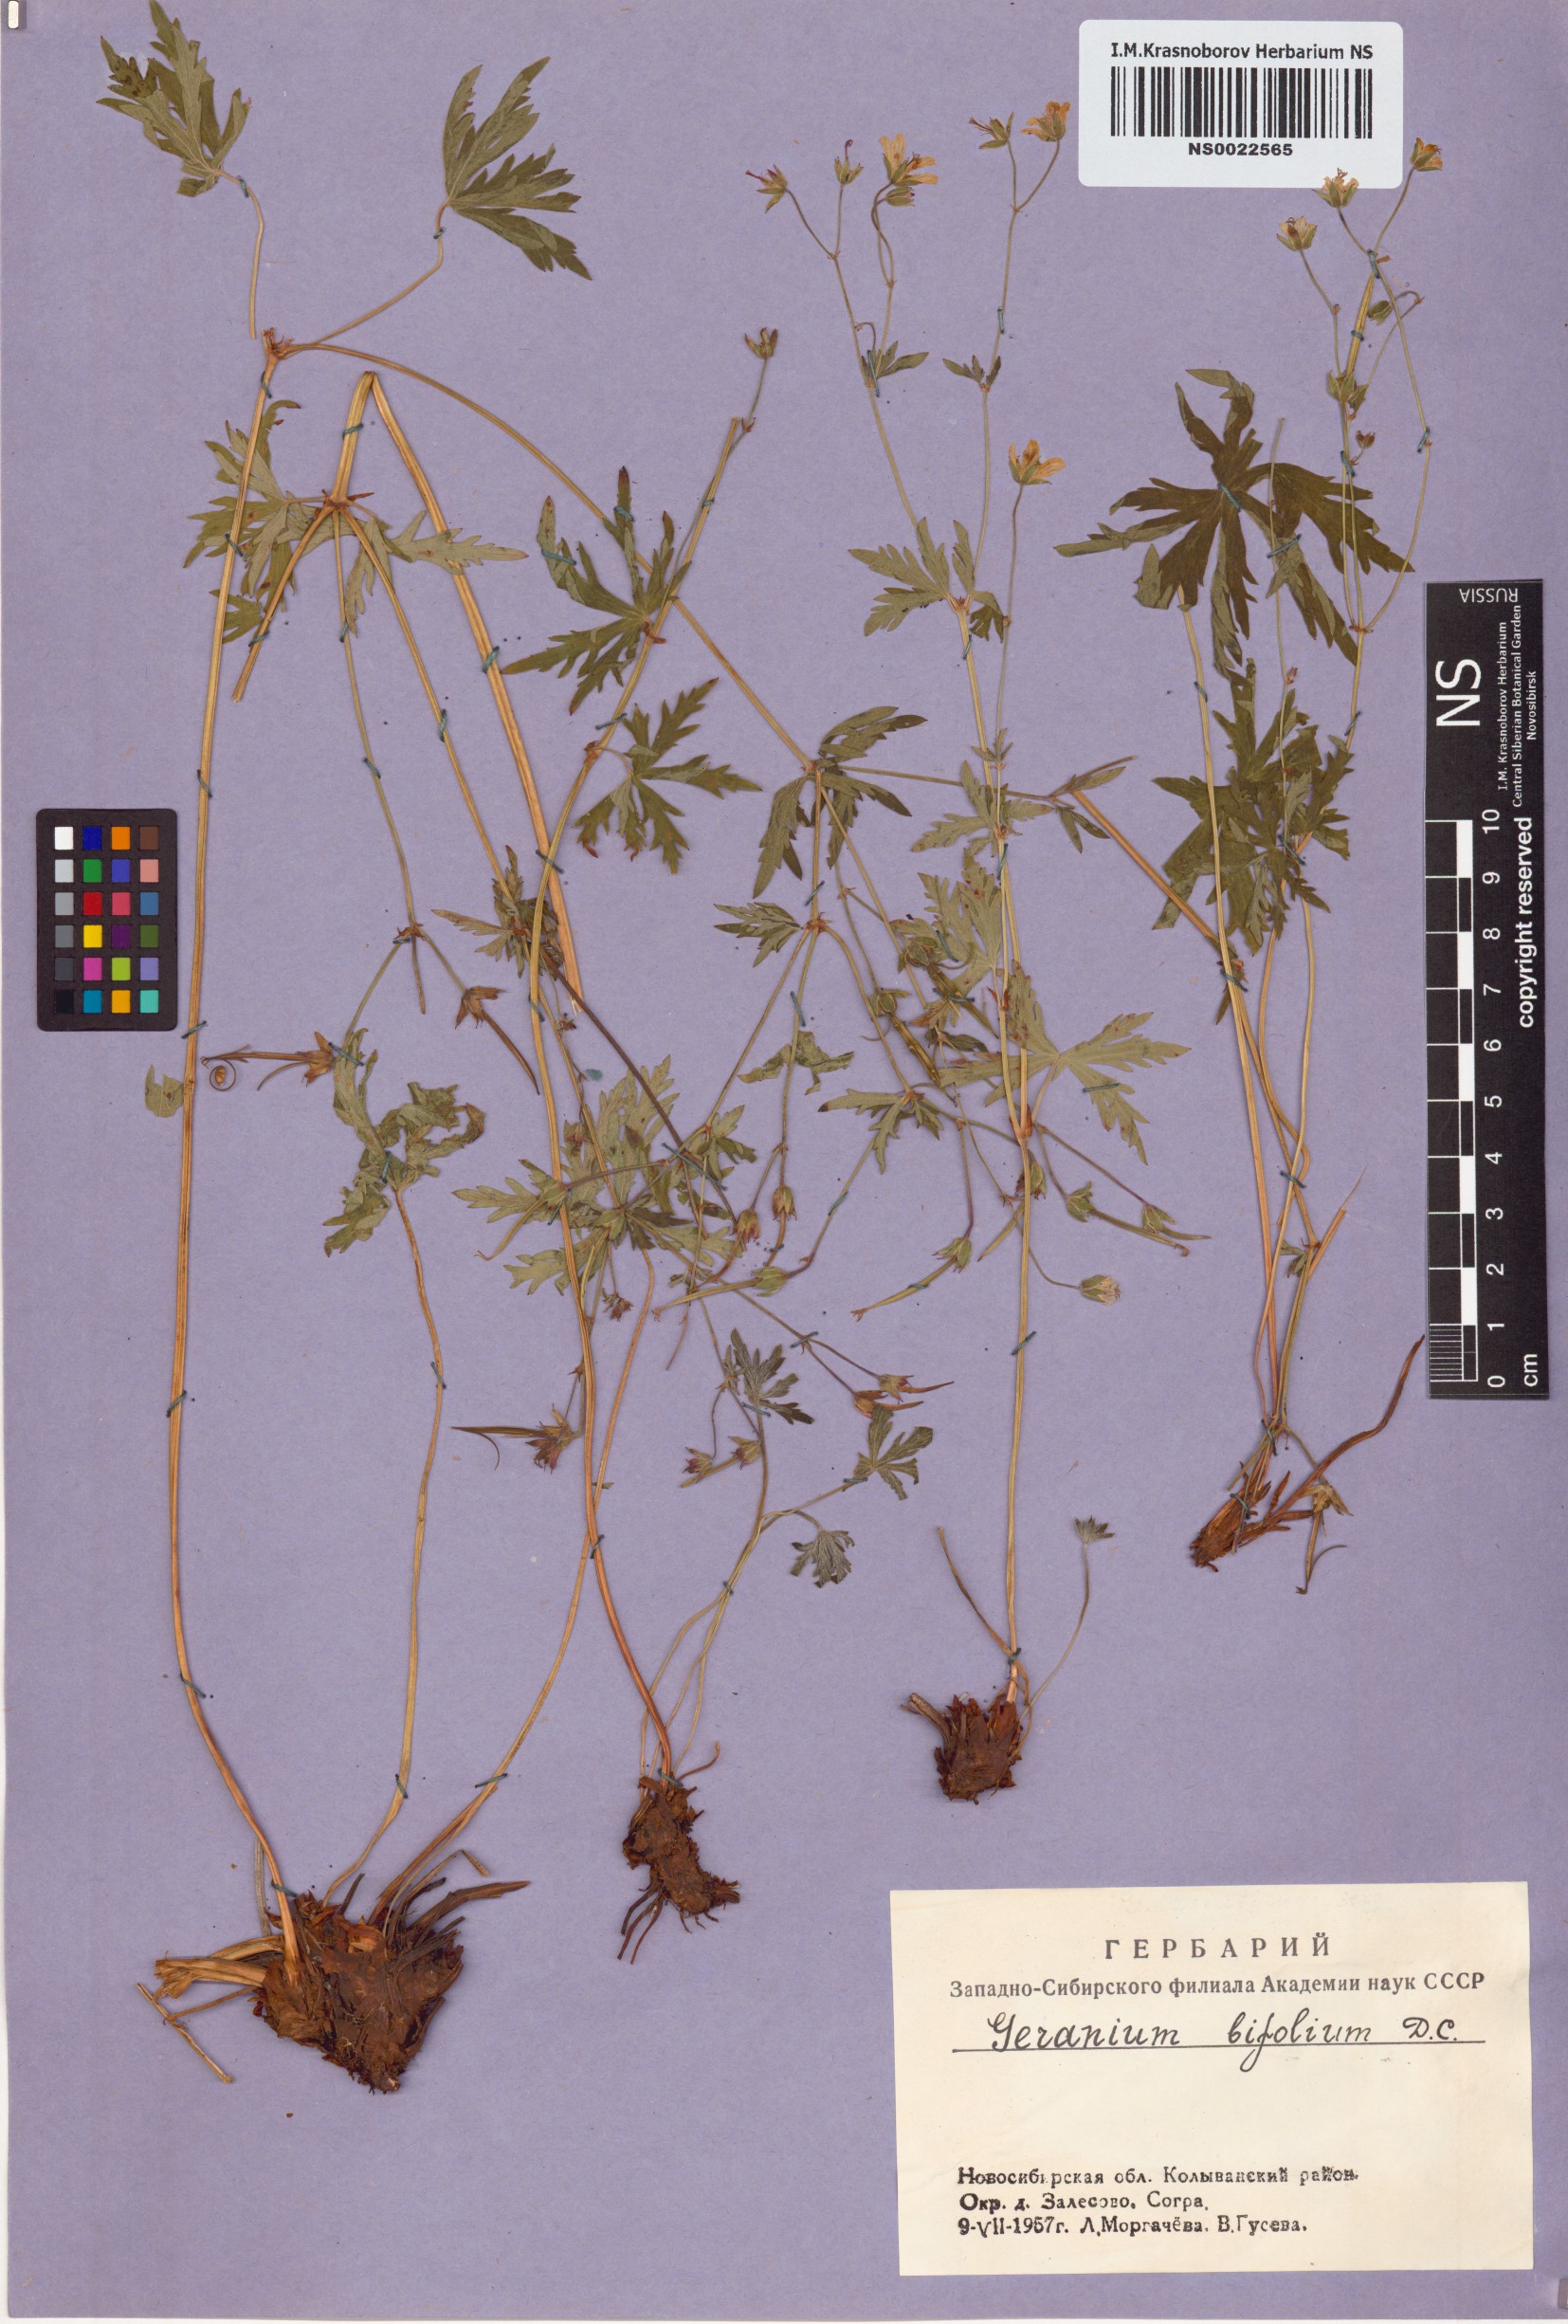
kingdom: Plantae
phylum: Tracheophyta
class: Magnoliopsida
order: Geraniales
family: Geraniaceae
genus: Geranium
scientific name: Geranium pseudosibiricum
